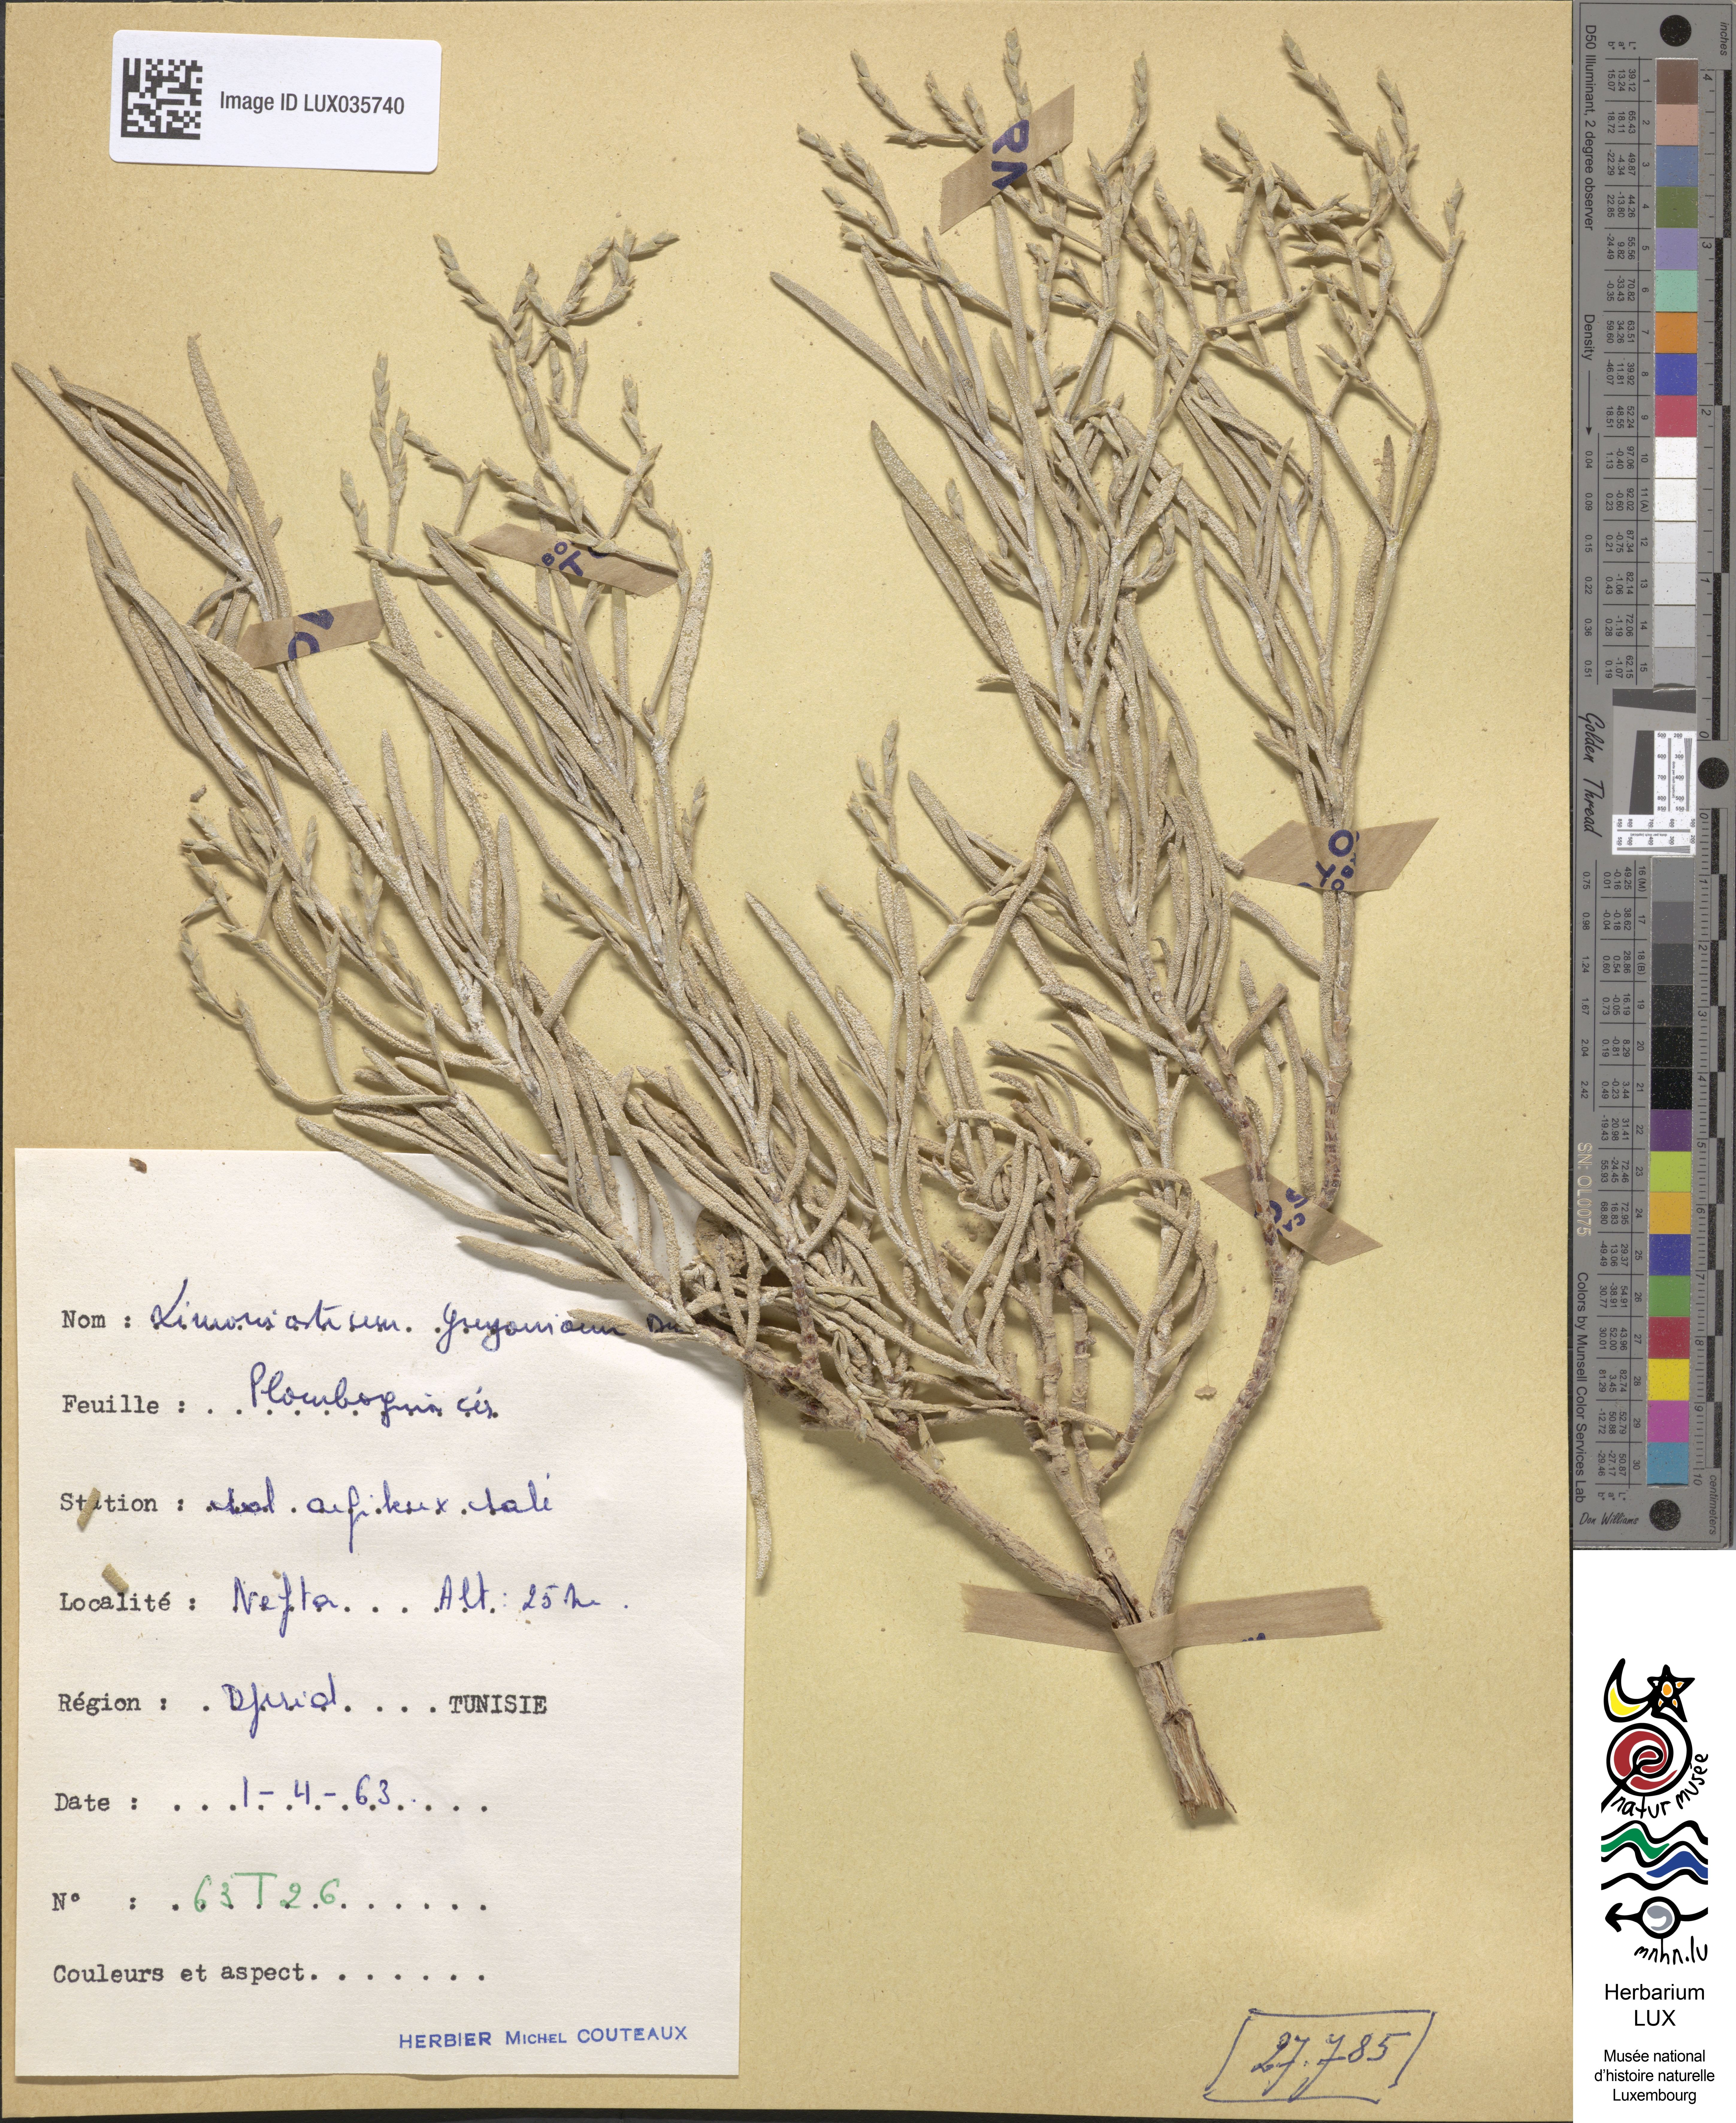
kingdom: Plantae
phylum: Tracheophyta
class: Magnoliopsida
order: Caryophyllales
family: Plumbaginaceae
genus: Limoniastrum
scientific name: Limoniastrum
